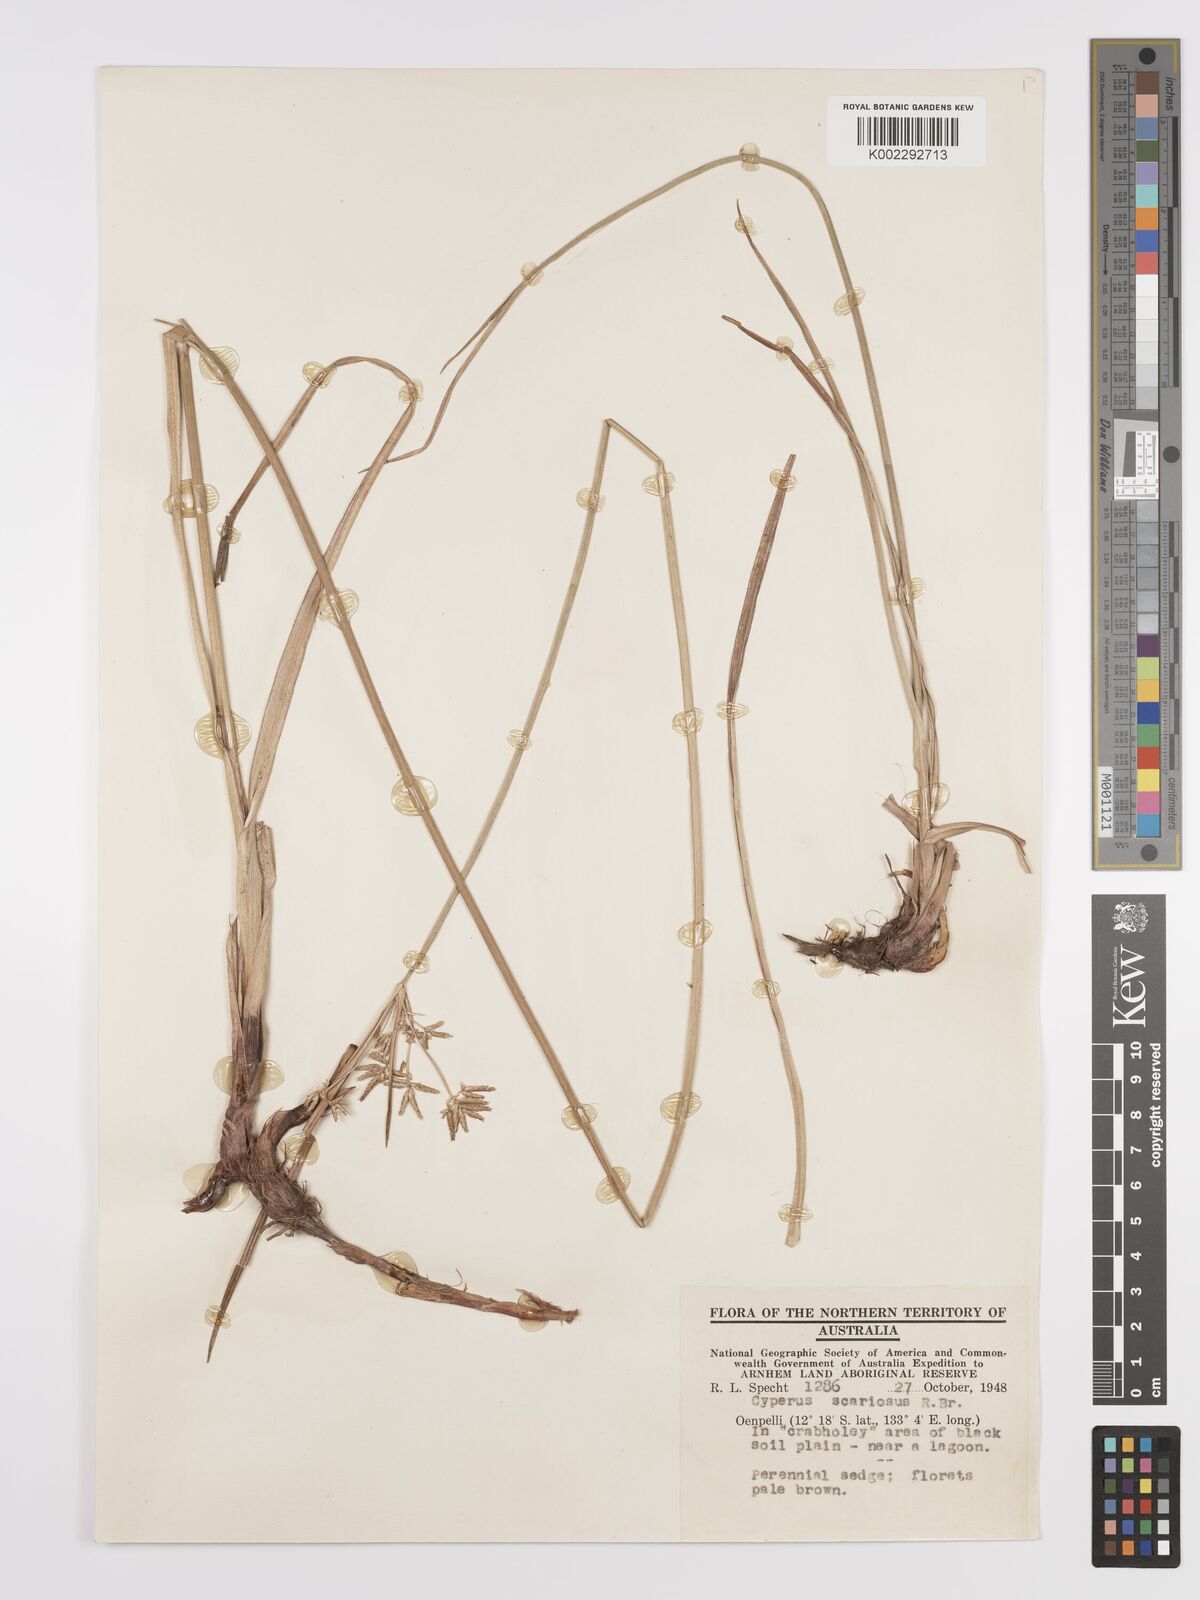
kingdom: Plantae
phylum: Tracheophyta
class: Liliopsida
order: Poales
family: Cyperaceae
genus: Cyperus
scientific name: Cyperus scariosus
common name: Cypriol
